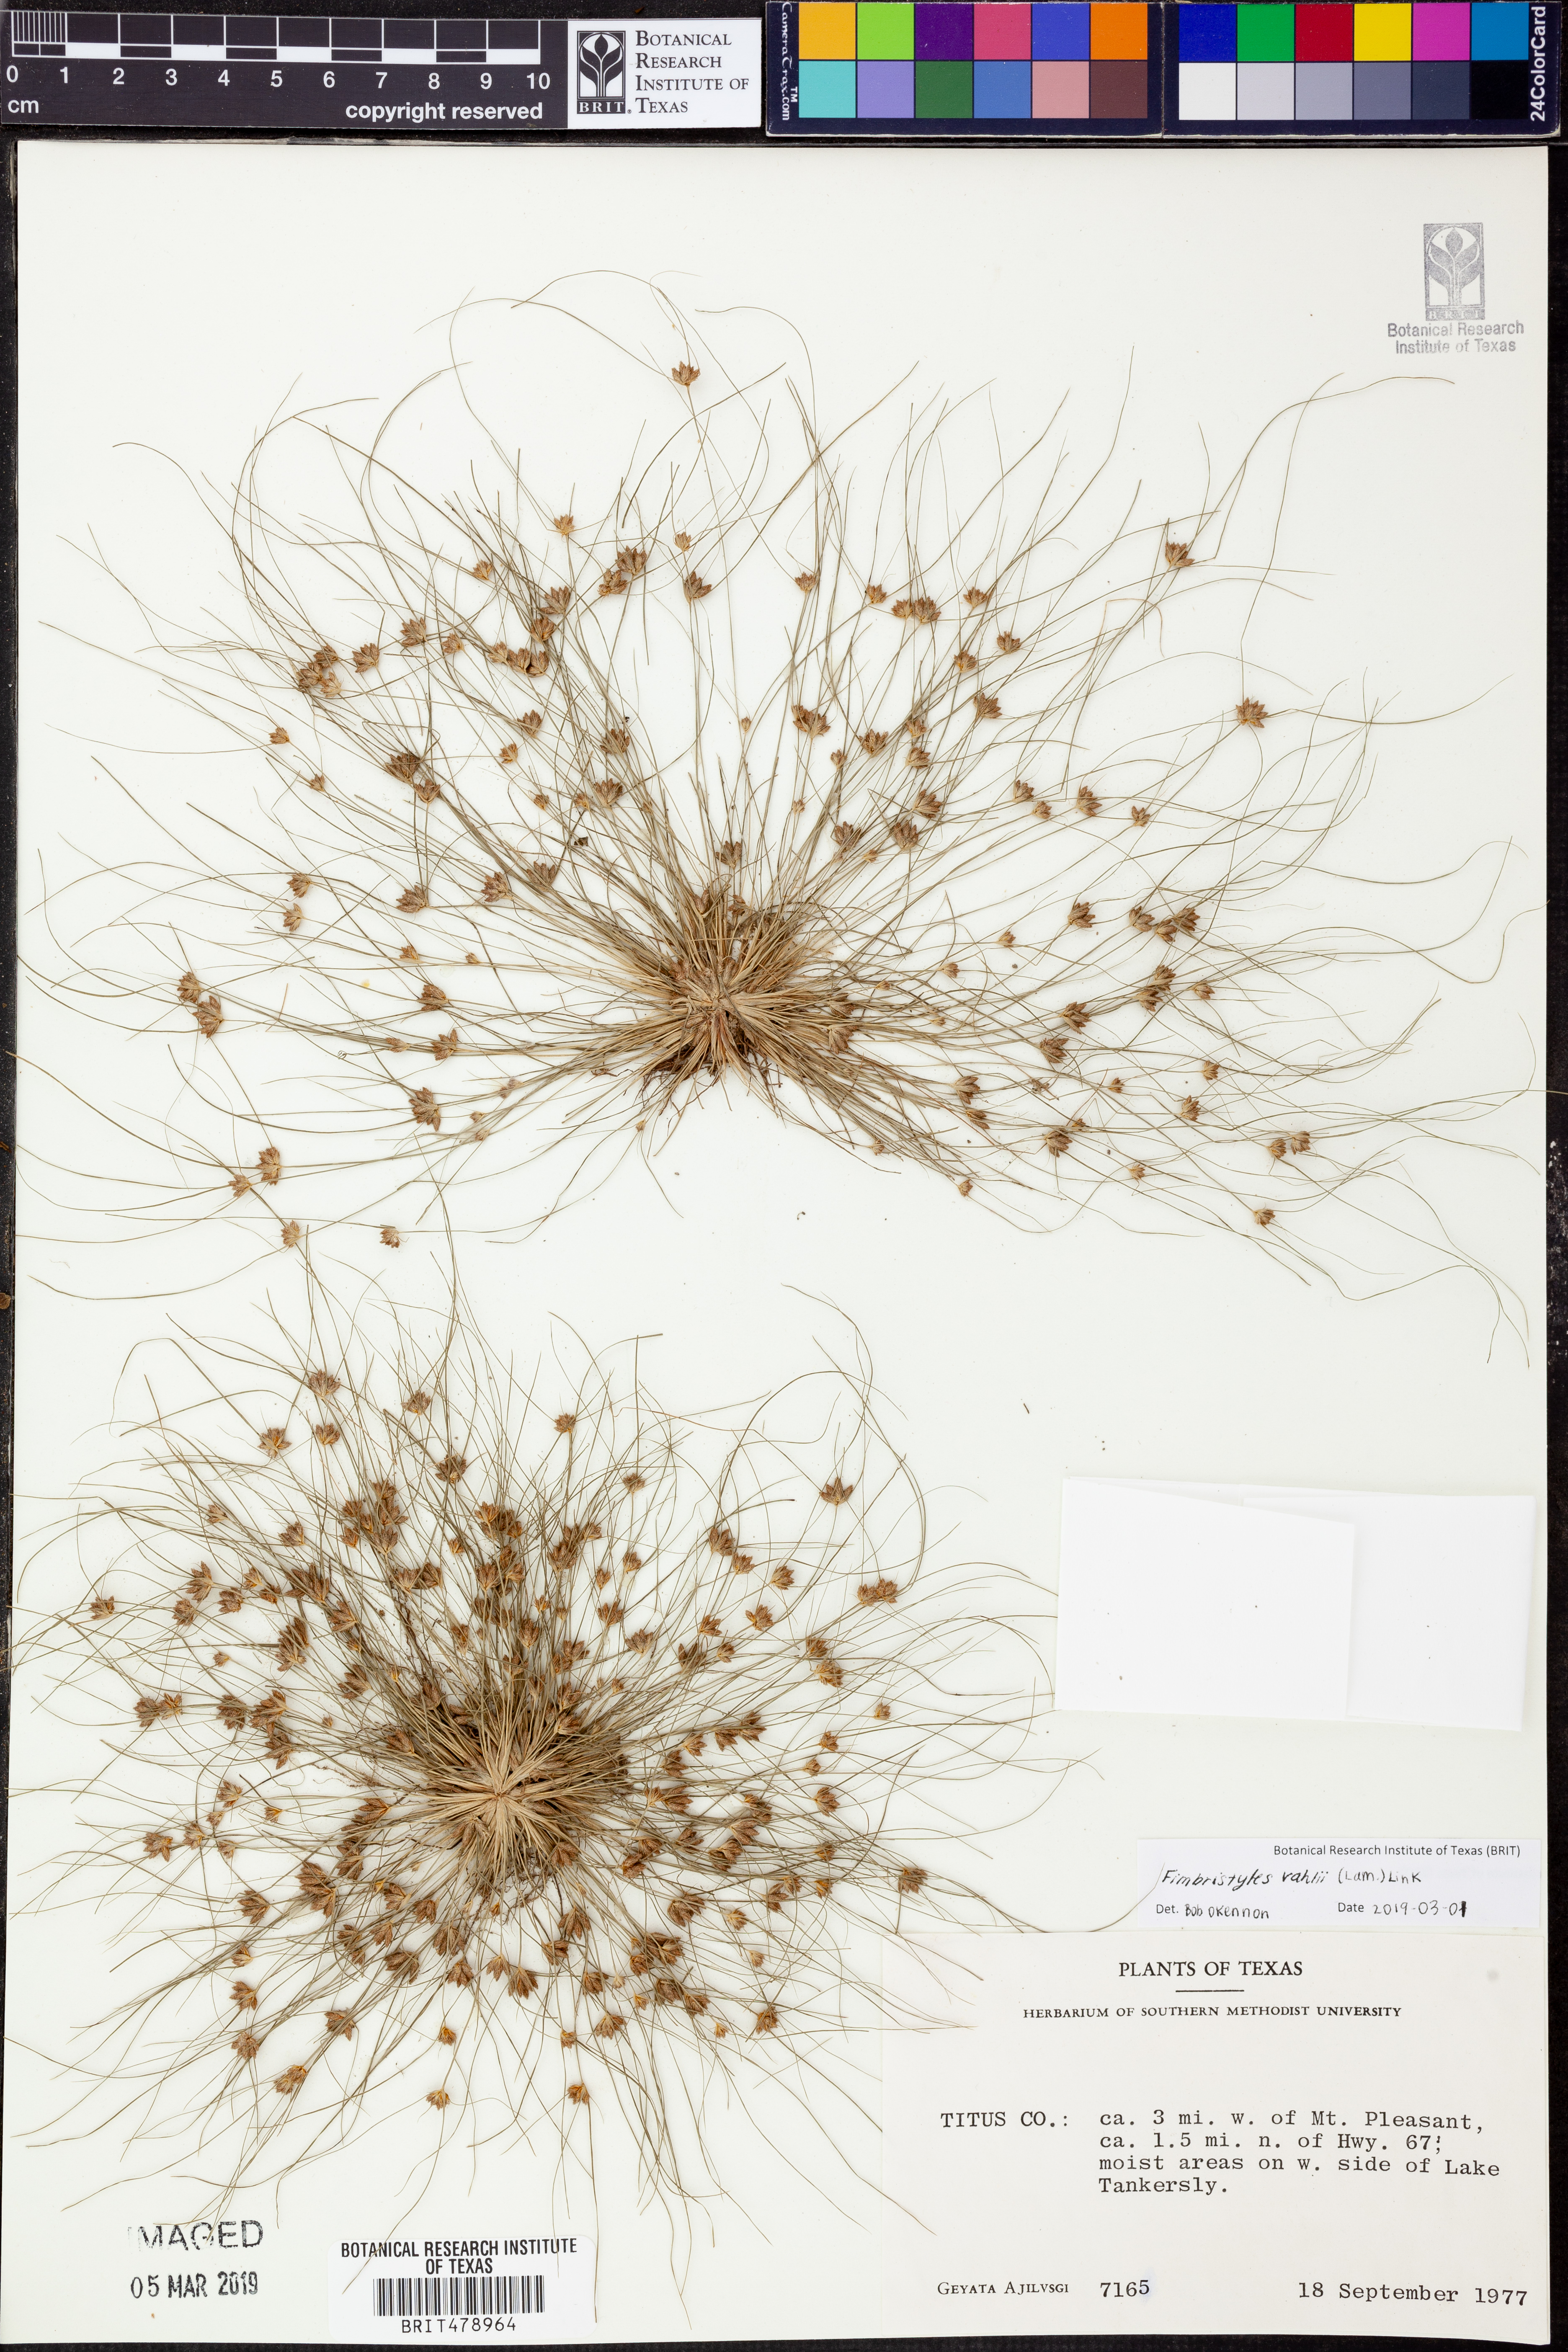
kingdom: Plantae
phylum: Tracheophyta
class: Liliopsida
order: Poales
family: Cyperaceae
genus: Fimbristylis
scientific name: Fimbristylis vahlii
